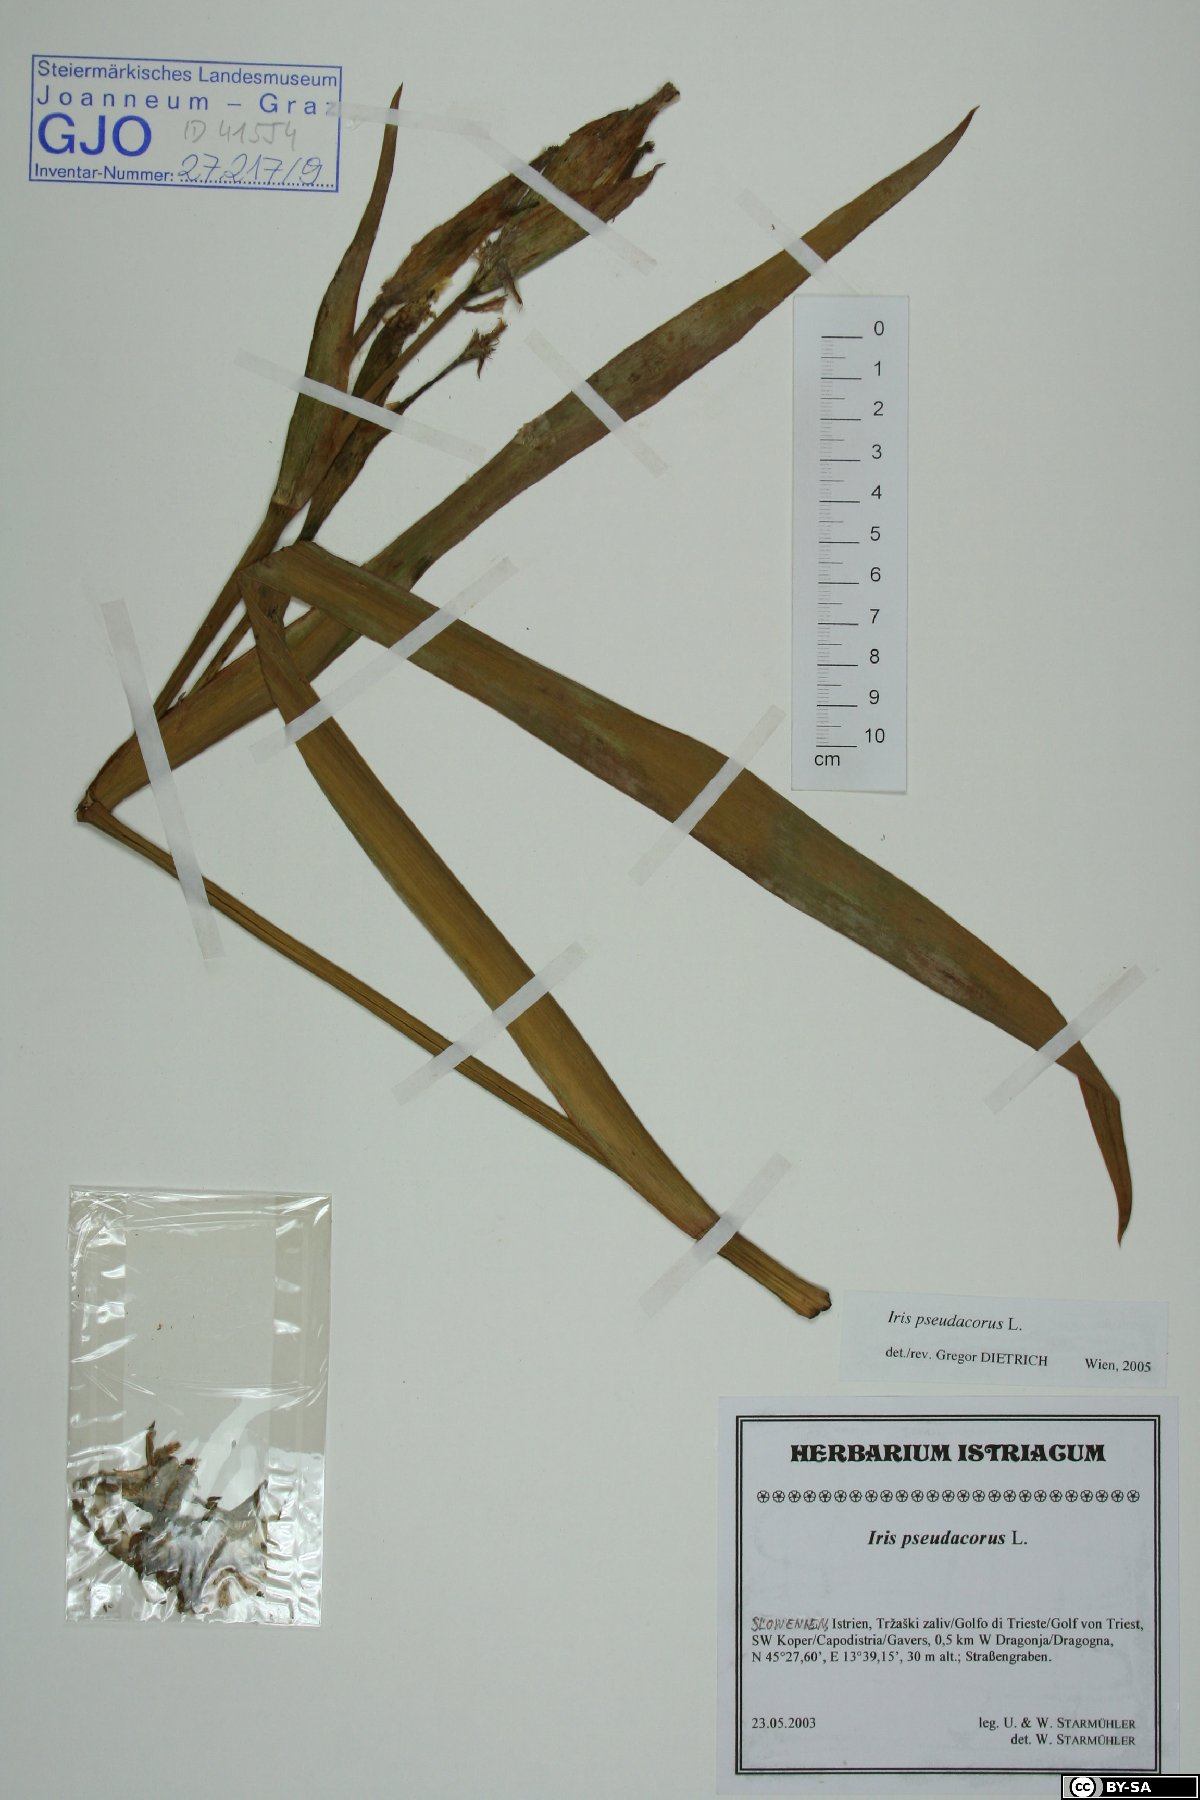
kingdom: Plantae
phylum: Tracheophyta
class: Liliopsida
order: Asparagales
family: Iridaceae
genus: Iris
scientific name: Iris pseudacorus
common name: Yellow flag
